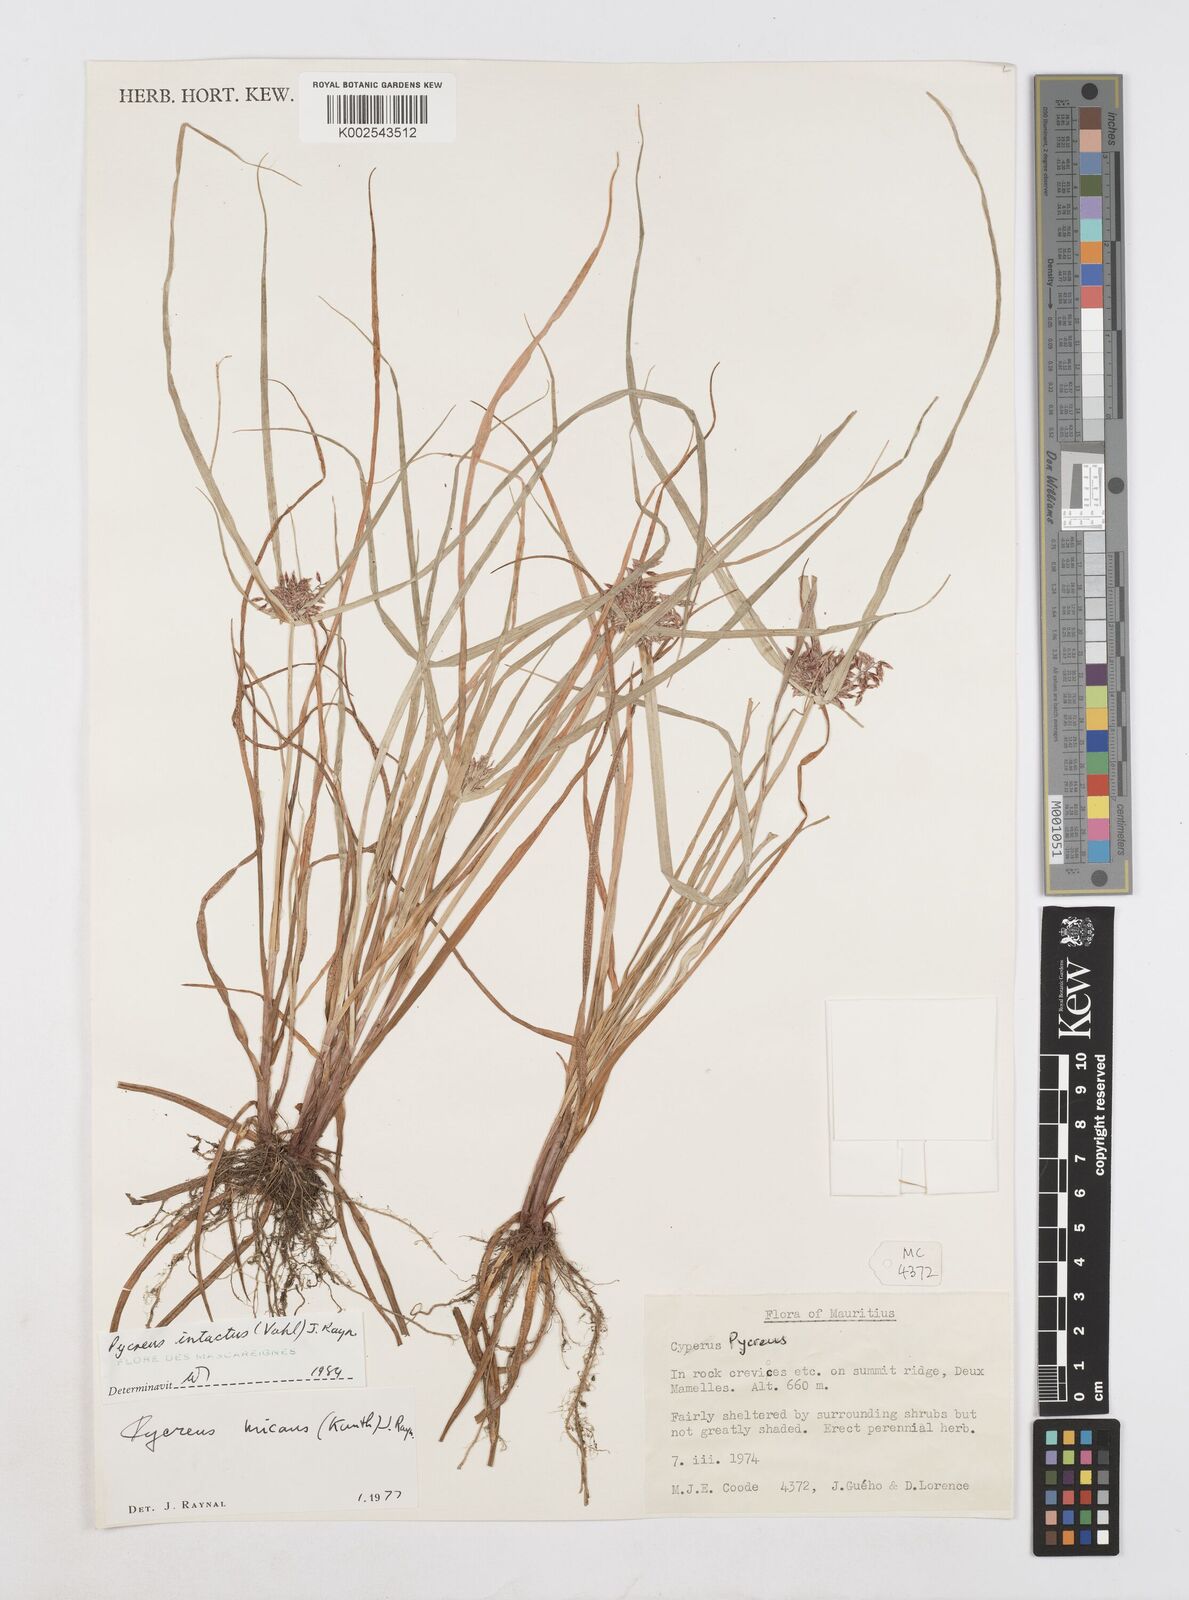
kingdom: Plantae
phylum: Tracheophyta
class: Liliopsida
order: Poales
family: Cyperaceae
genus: Cyperus
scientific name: Cyperus intactus
